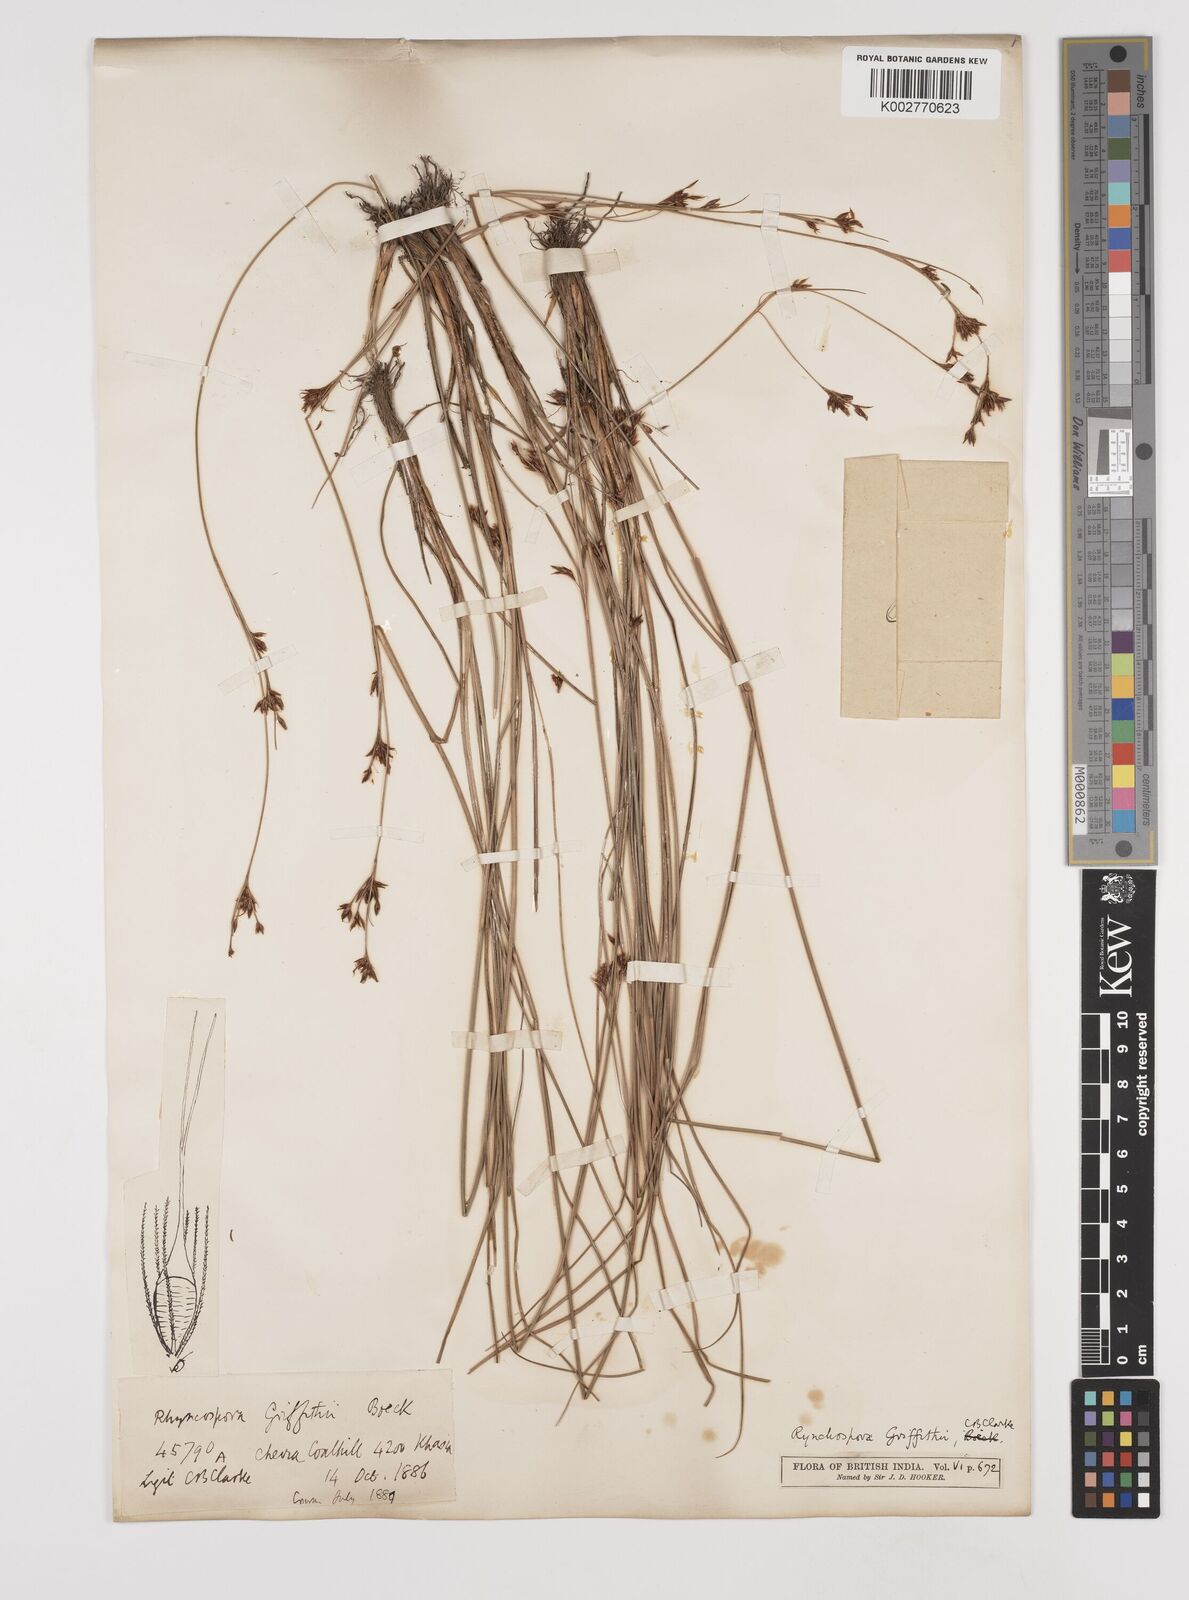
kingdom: Plantae
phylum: Tracheophyta
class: Liliopsida
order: Poales
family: Cyperaceae
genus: Rhynchospora
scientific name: Rhynchospora brownii
